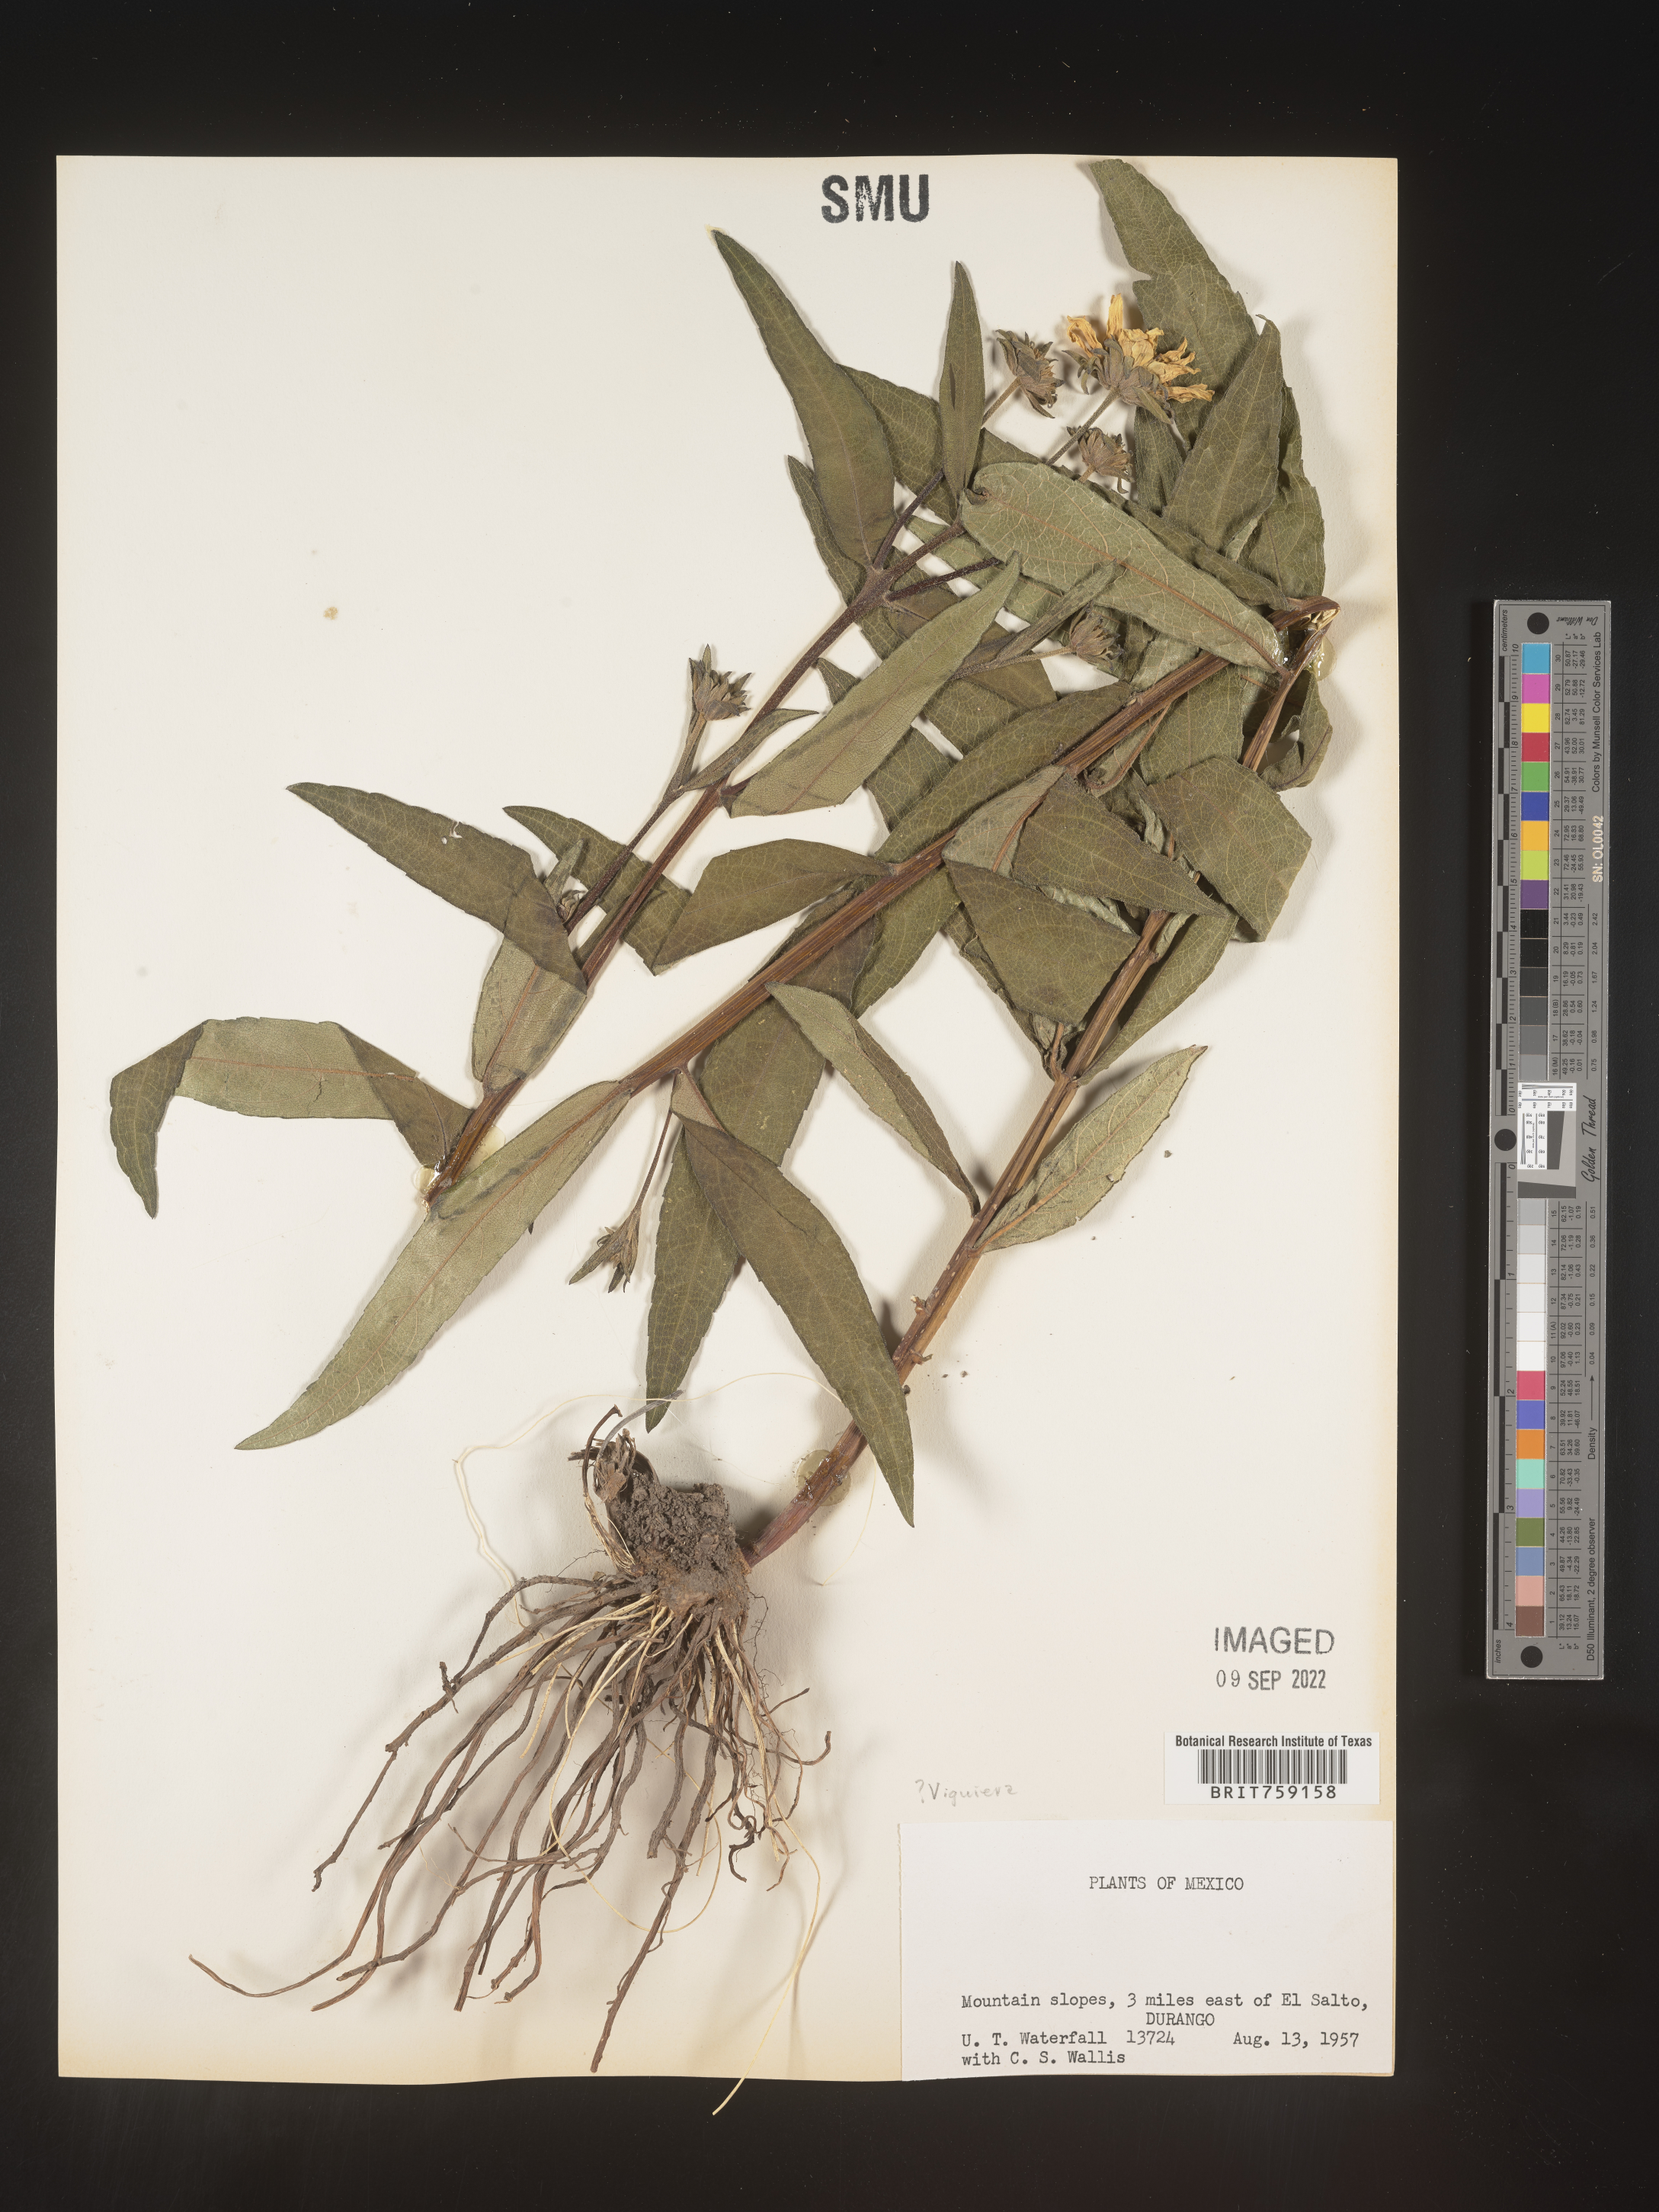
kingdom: Plantae
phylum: Tracheophyta
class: Magnoliopsida
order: Asterales
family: Asteraceae
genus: Viguiera
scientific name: Viguiera
